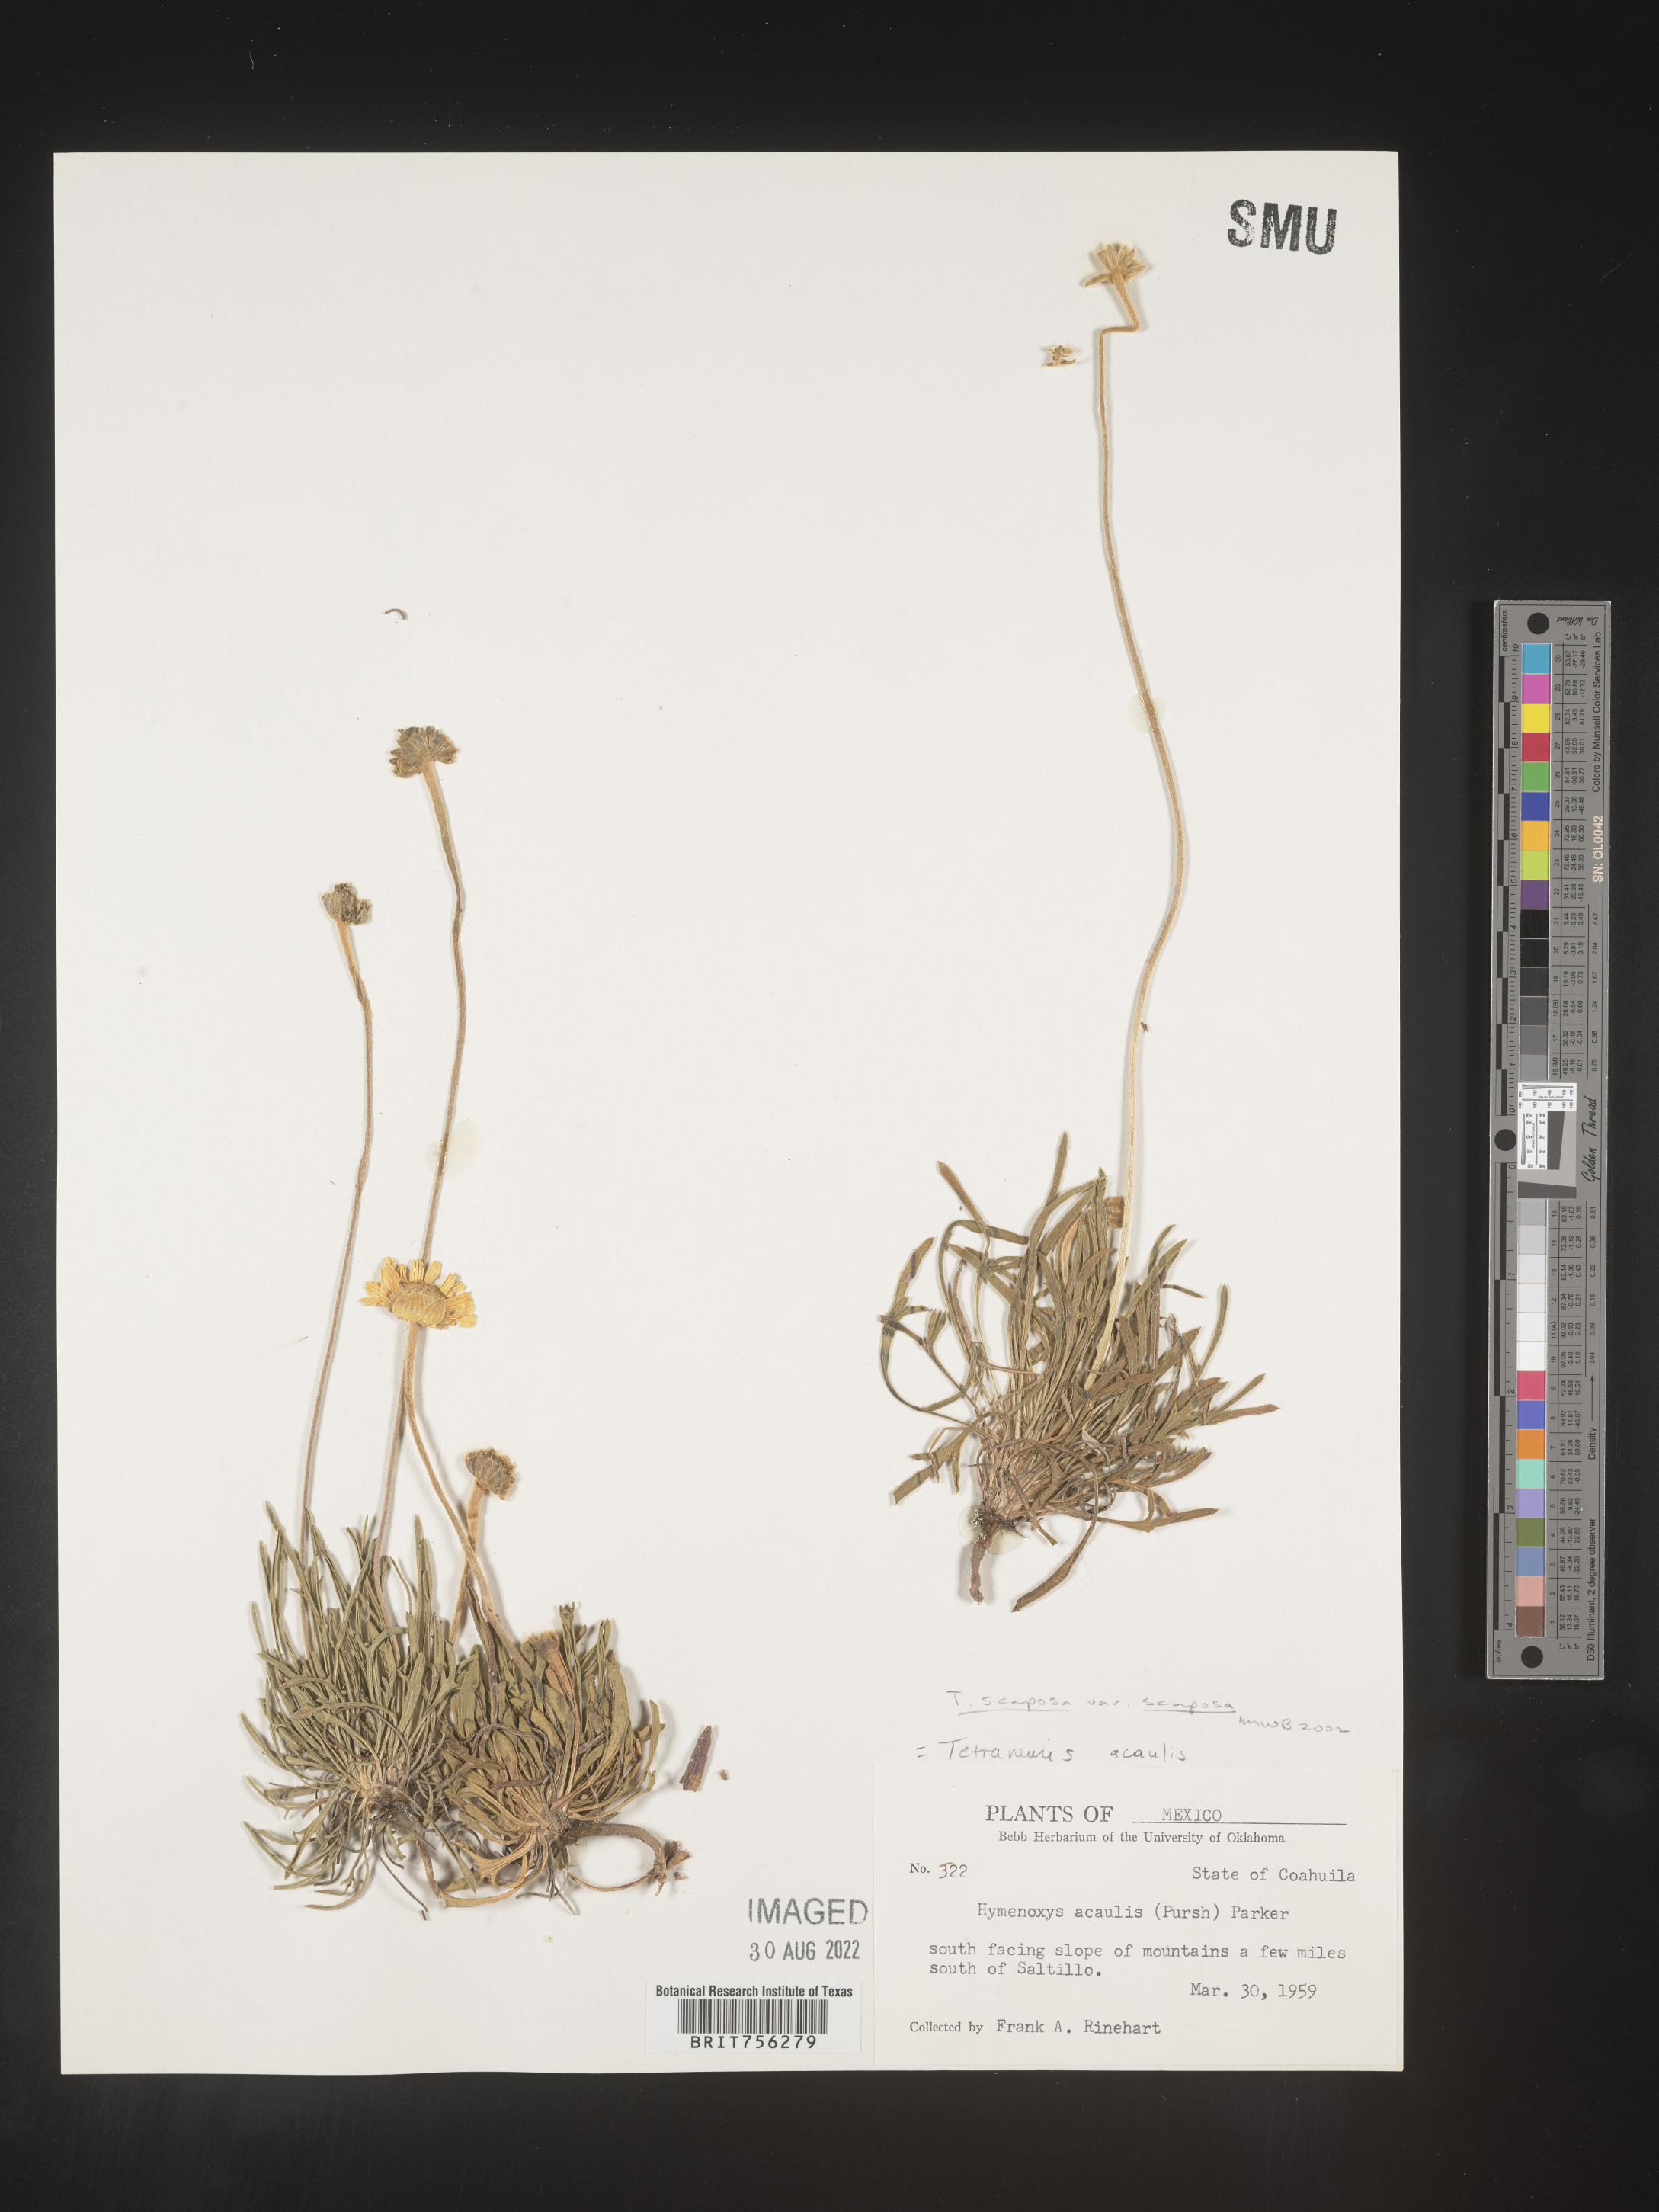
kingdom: Plantae
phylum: Tracheophyta
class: Magnoliopsida
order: Asterales
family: Asteraceae
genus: Tetraneuris
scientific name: Tetraneuris
